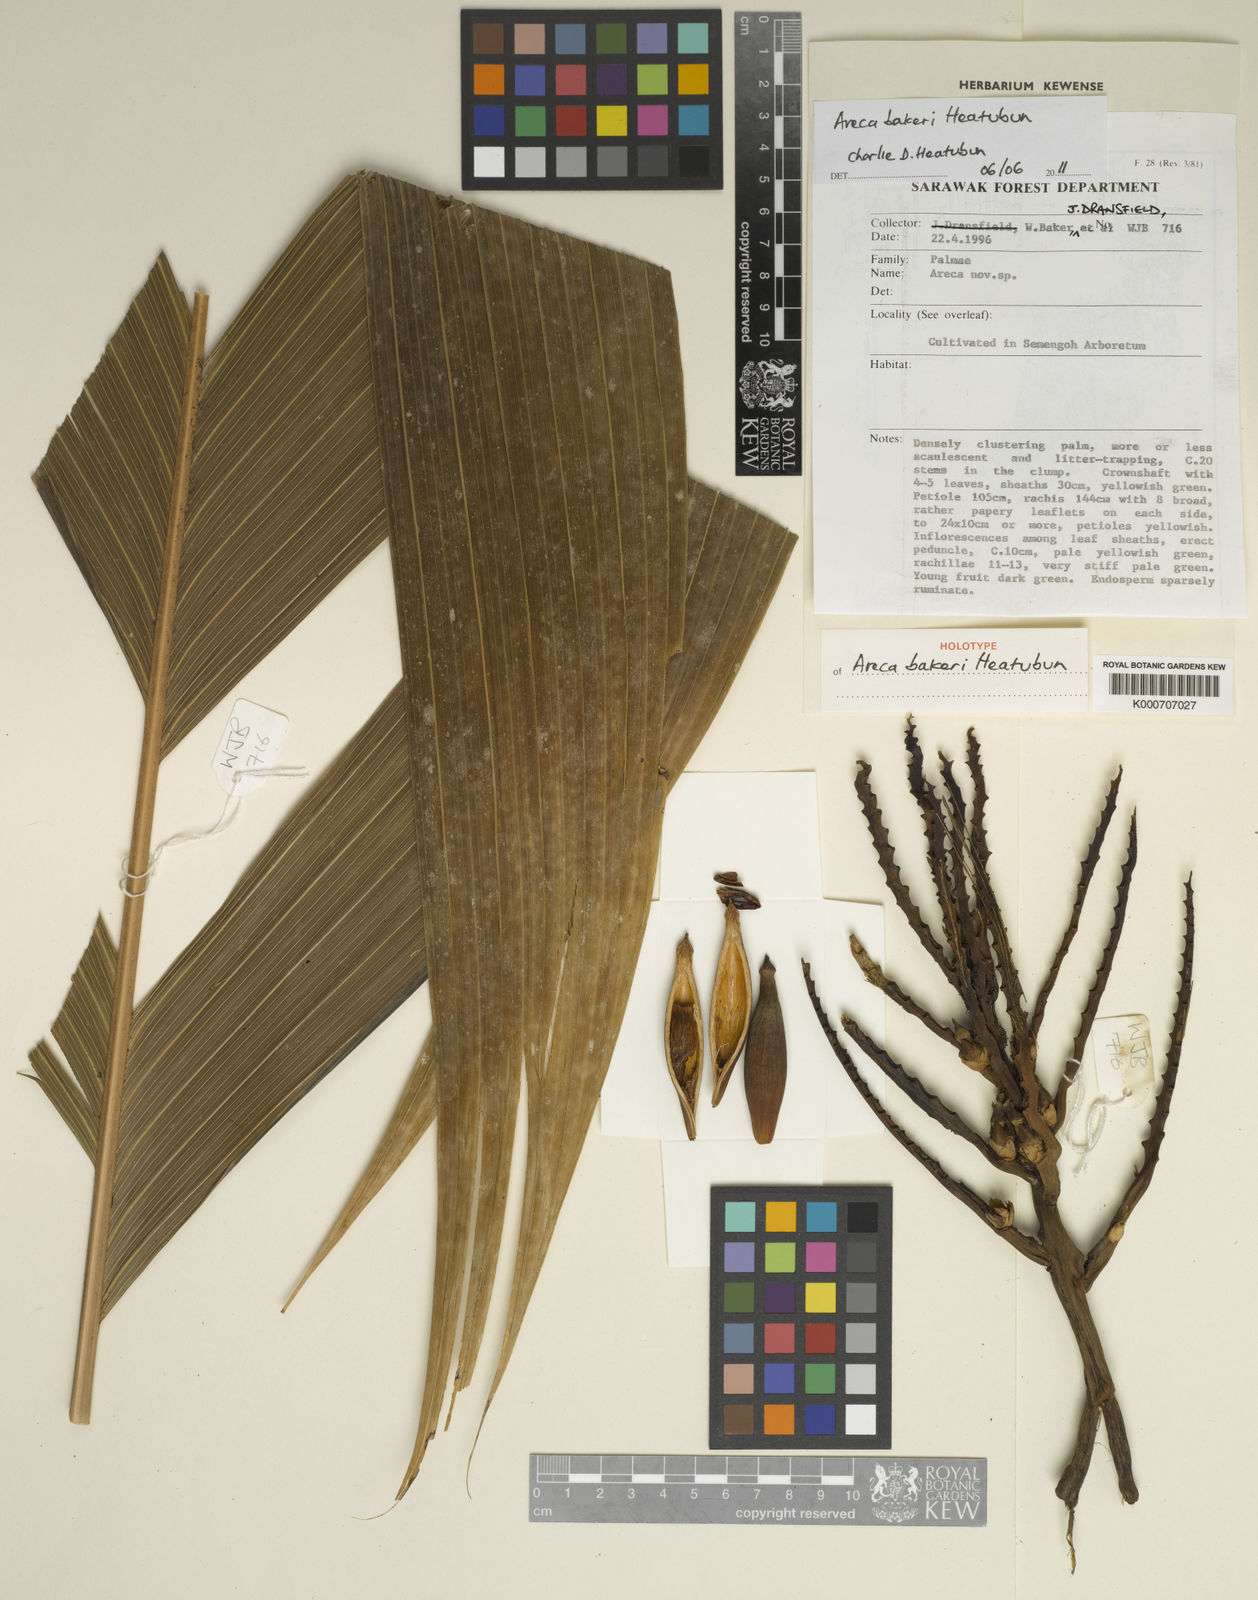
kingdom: Plantae
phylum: Tracheophyta
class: Liliopsida
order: Arecales
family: Arecaceae
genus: Areca
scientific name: Areca bakeri
